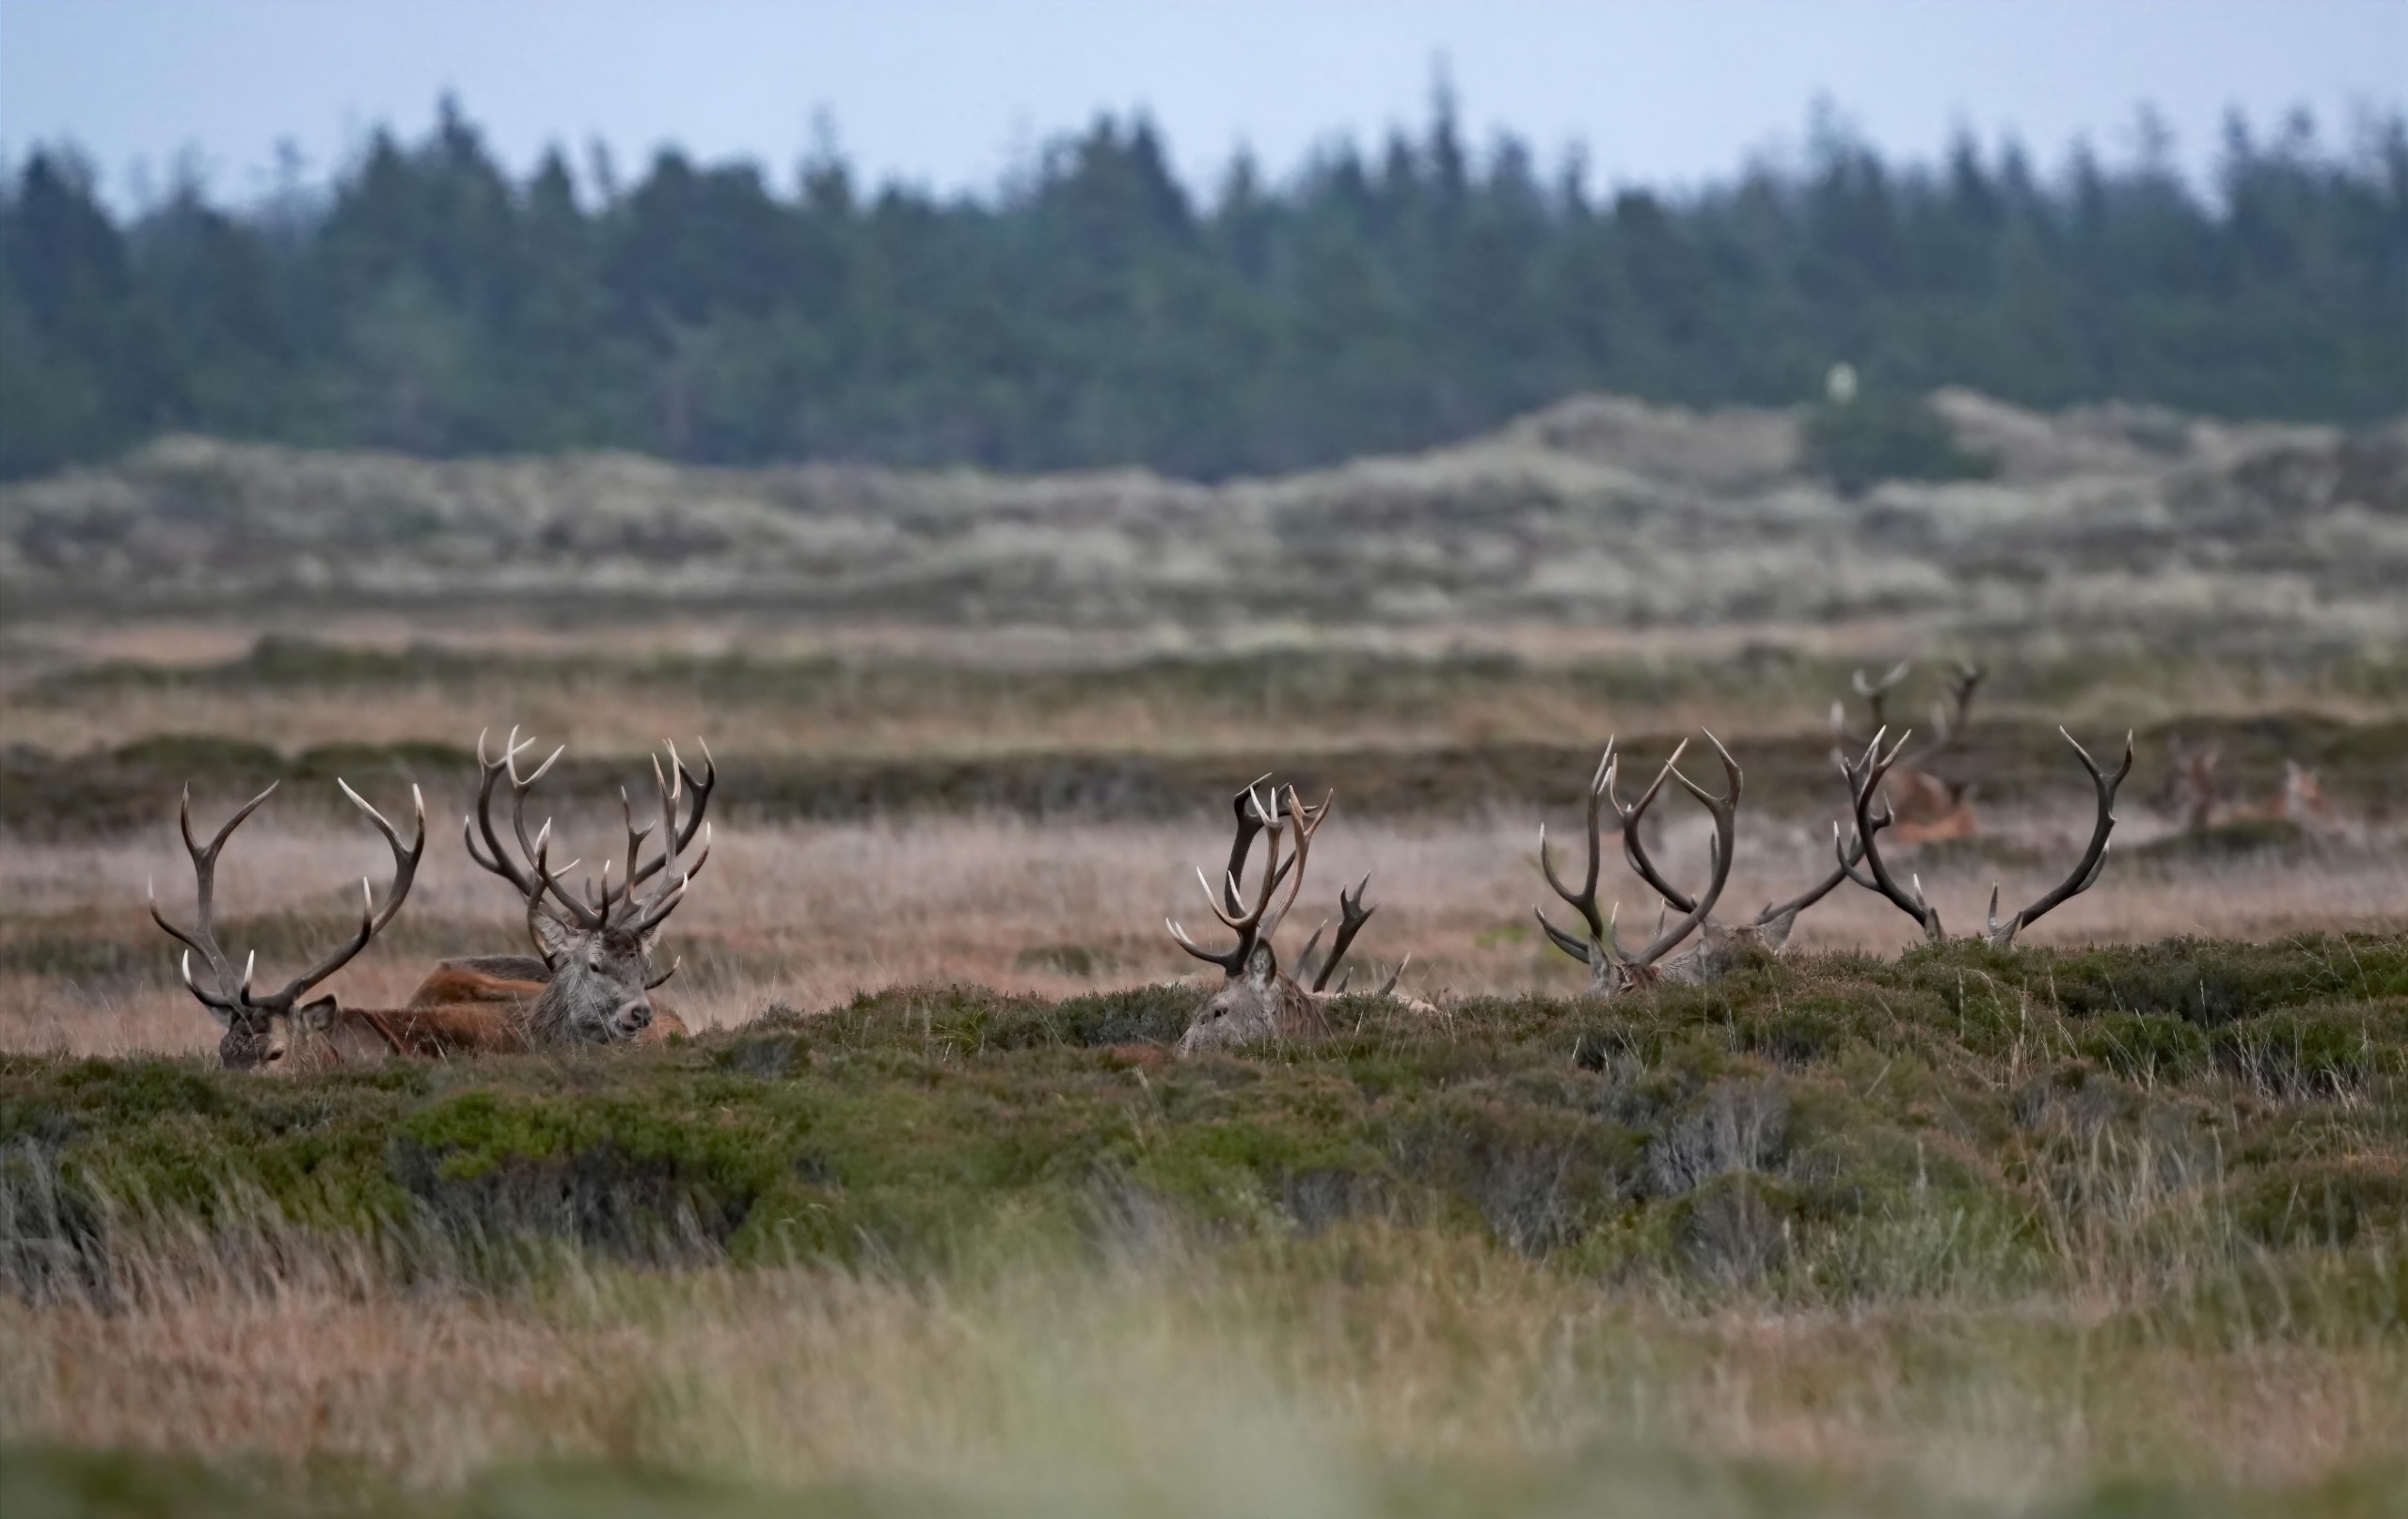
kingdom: Animalia
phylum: Chordata
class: Mammalia
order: Artiodactyla
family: Cervidae
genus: Cervus
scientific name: Cervus elaphus
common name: Krondyr
